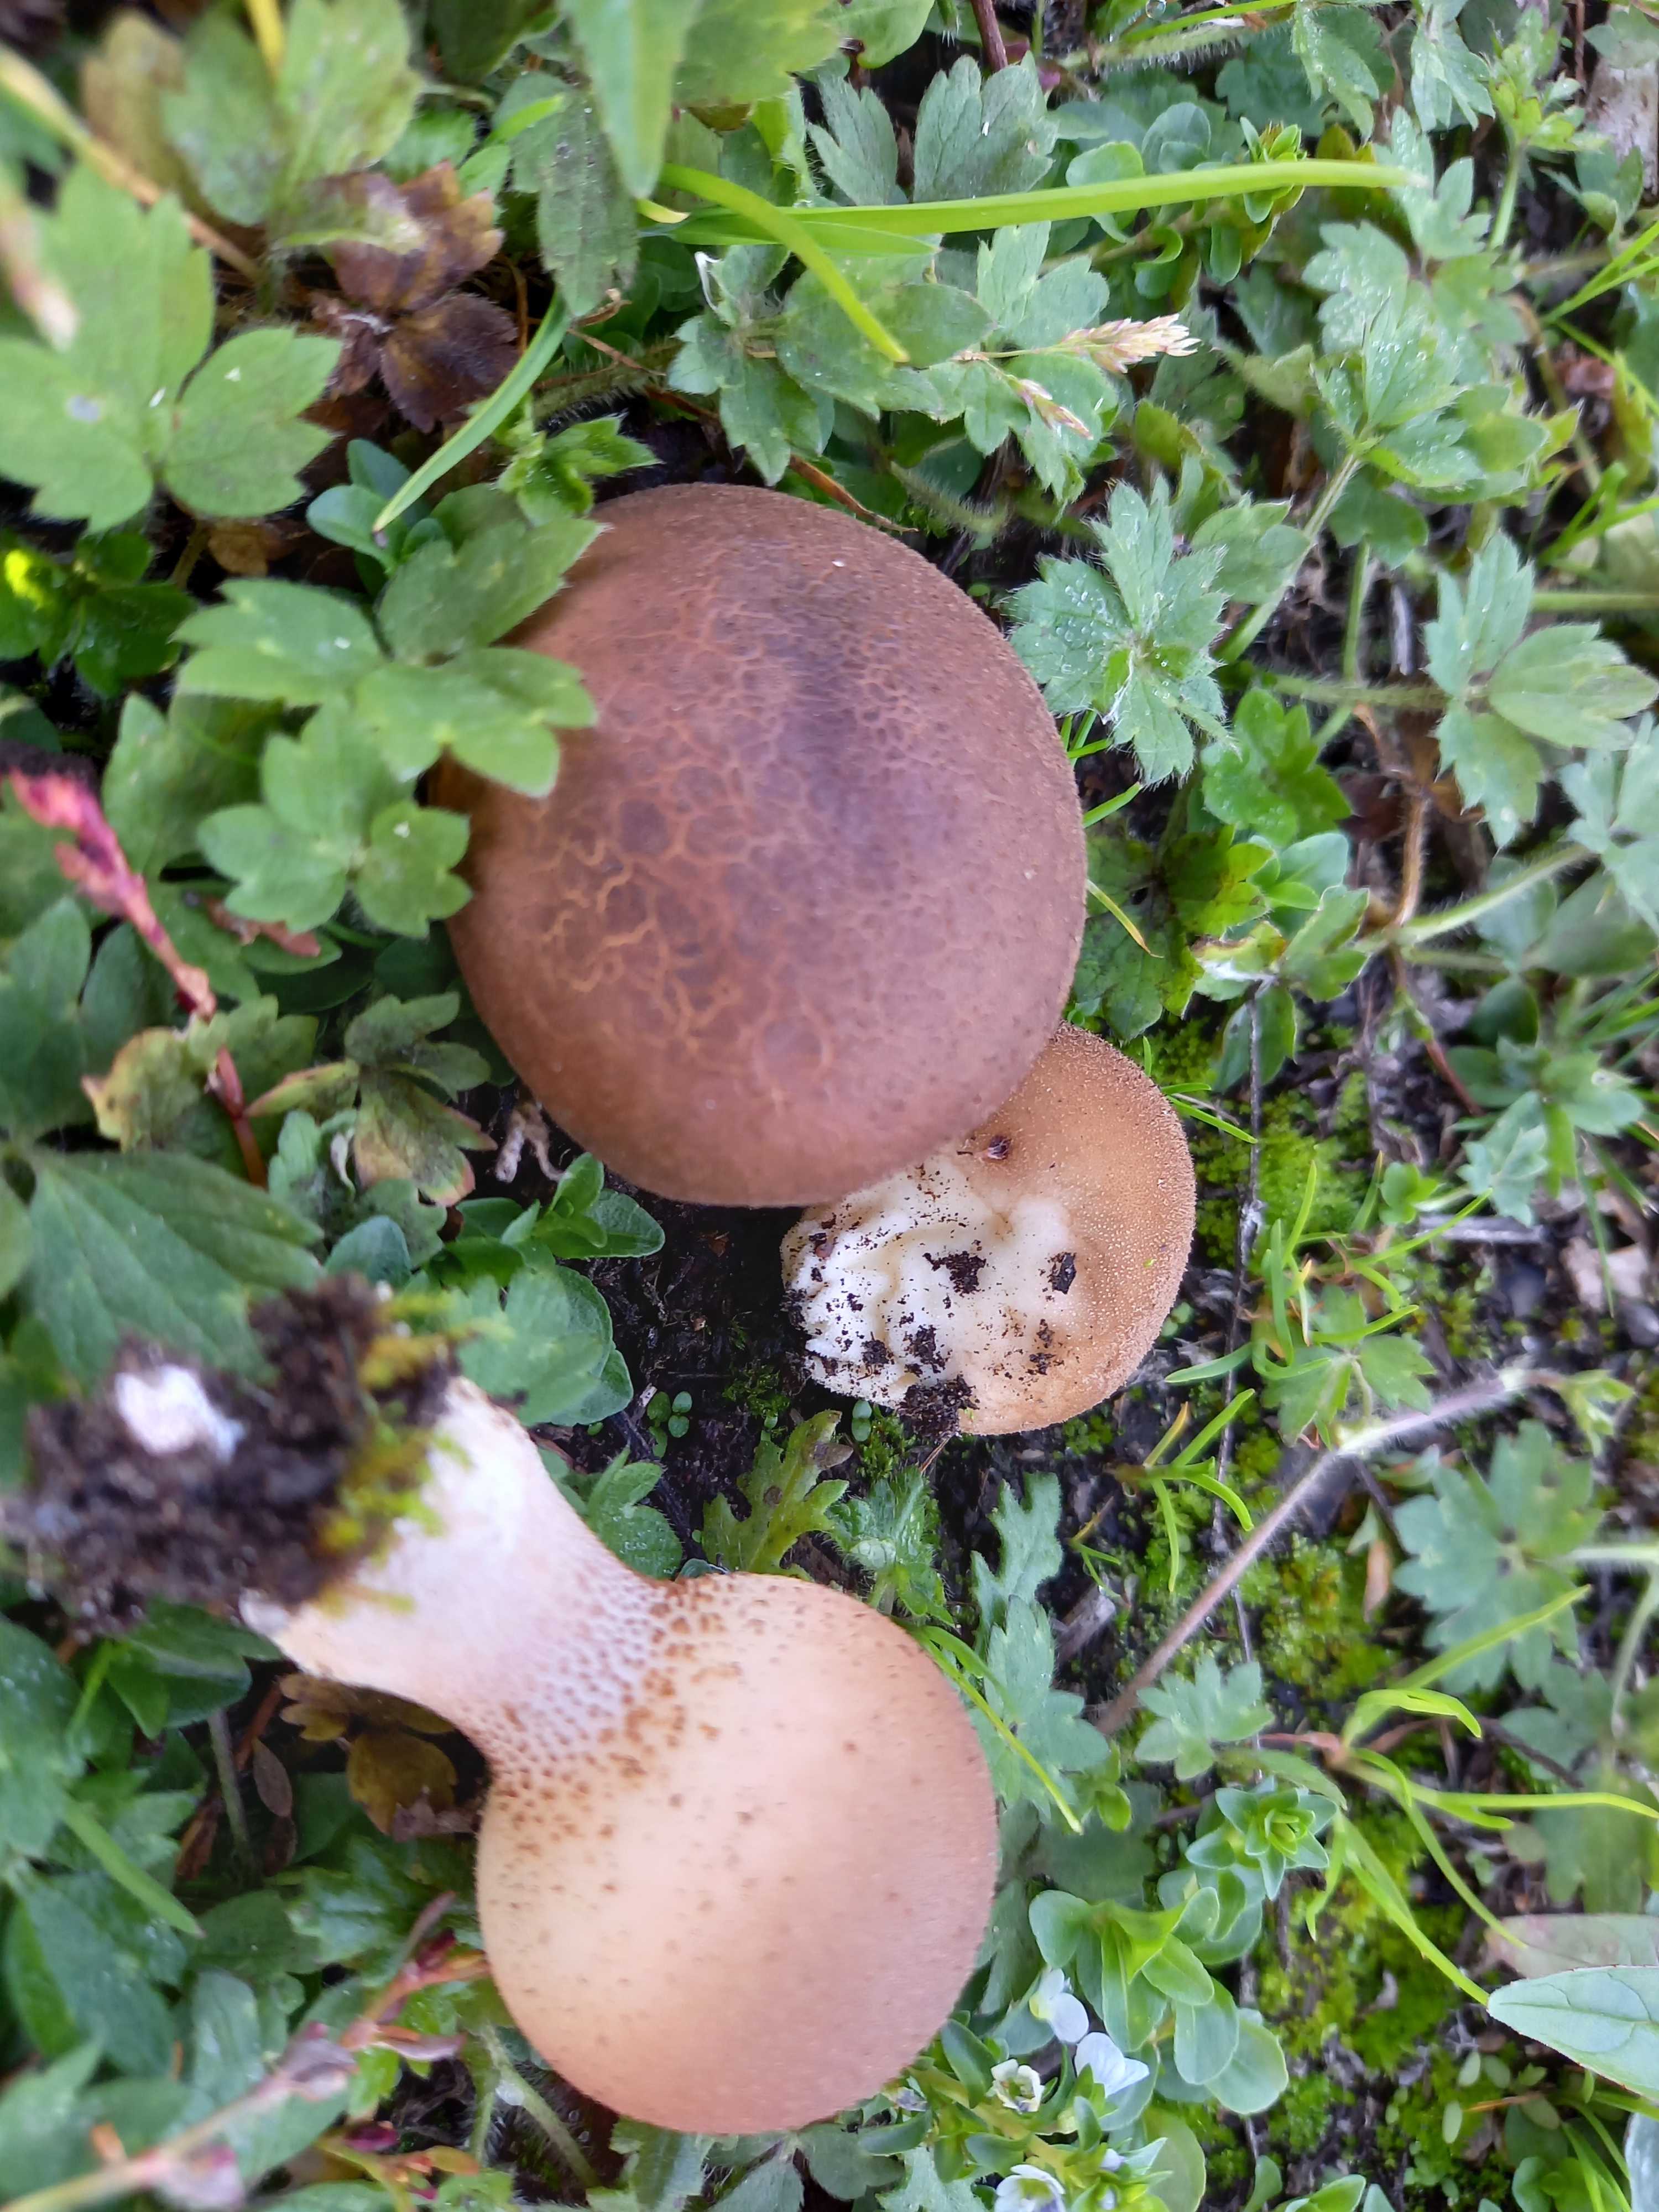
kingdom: Fungi
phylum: Basidiomycota
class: Agaricomycetes
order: Agaricales
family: Lycoperdaceae
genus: Apioperdon
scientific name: Apioperdon pyriforme
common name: pære-støvbold
